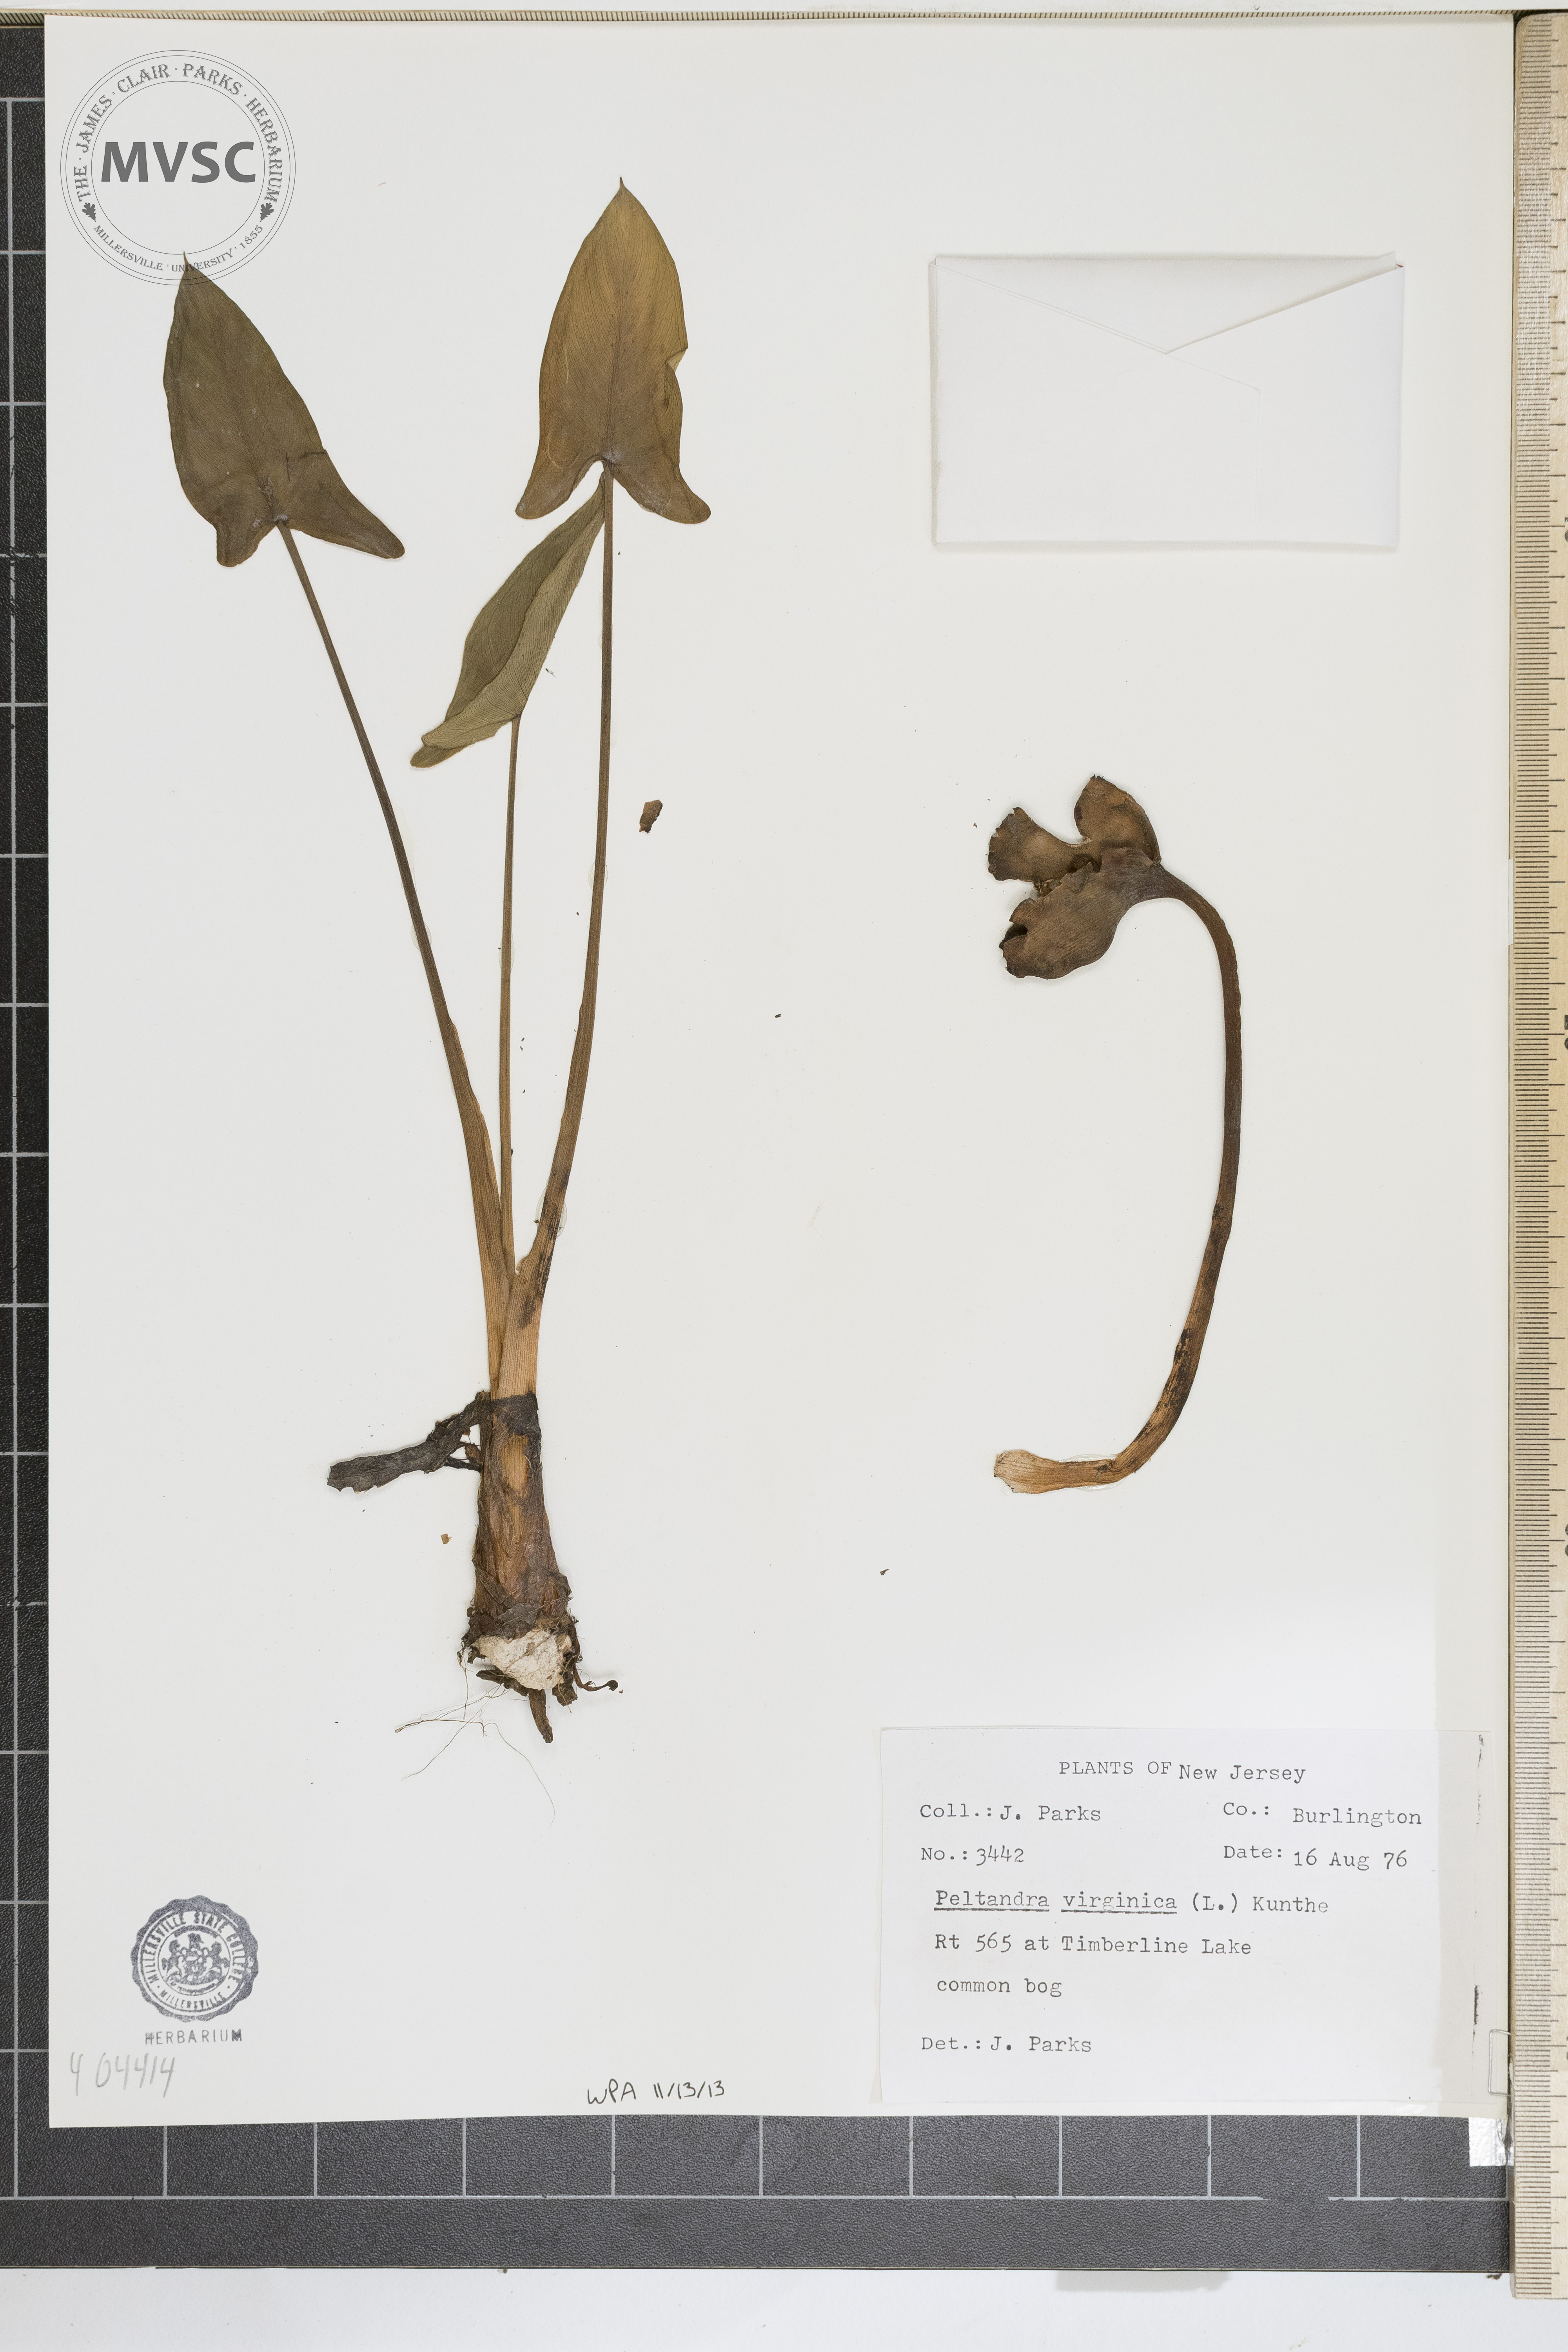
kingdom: Plantae
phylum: Tracheophyta
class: Liliopsida
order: Alismatales
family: Araceae
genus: Peltandra
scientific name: Peltandra virginica
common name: Arrow arum
